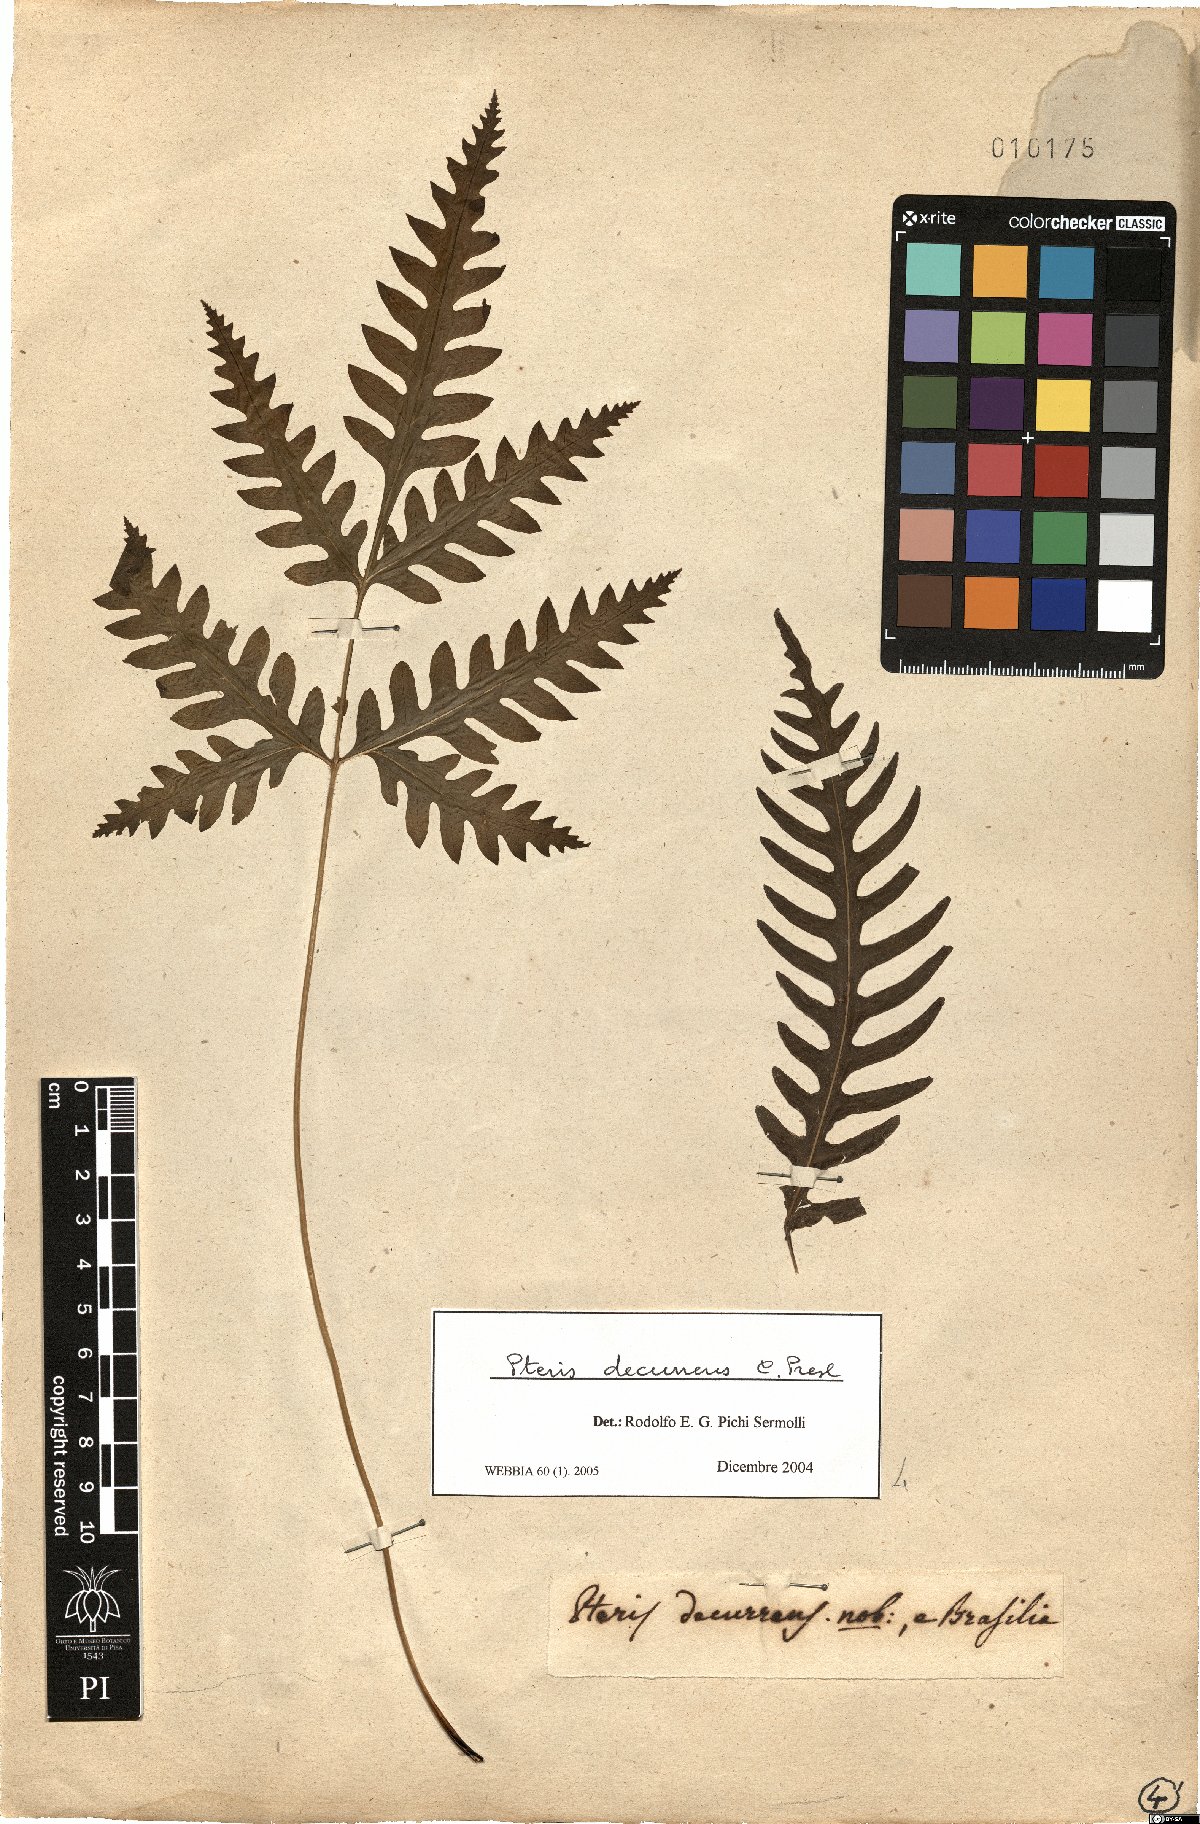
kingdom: Plantae
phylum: Tracheophyta
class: Polypodiopsida
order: Polypodiales
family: Pteridaceae
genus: Pteris
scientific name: Pteris decurrens
